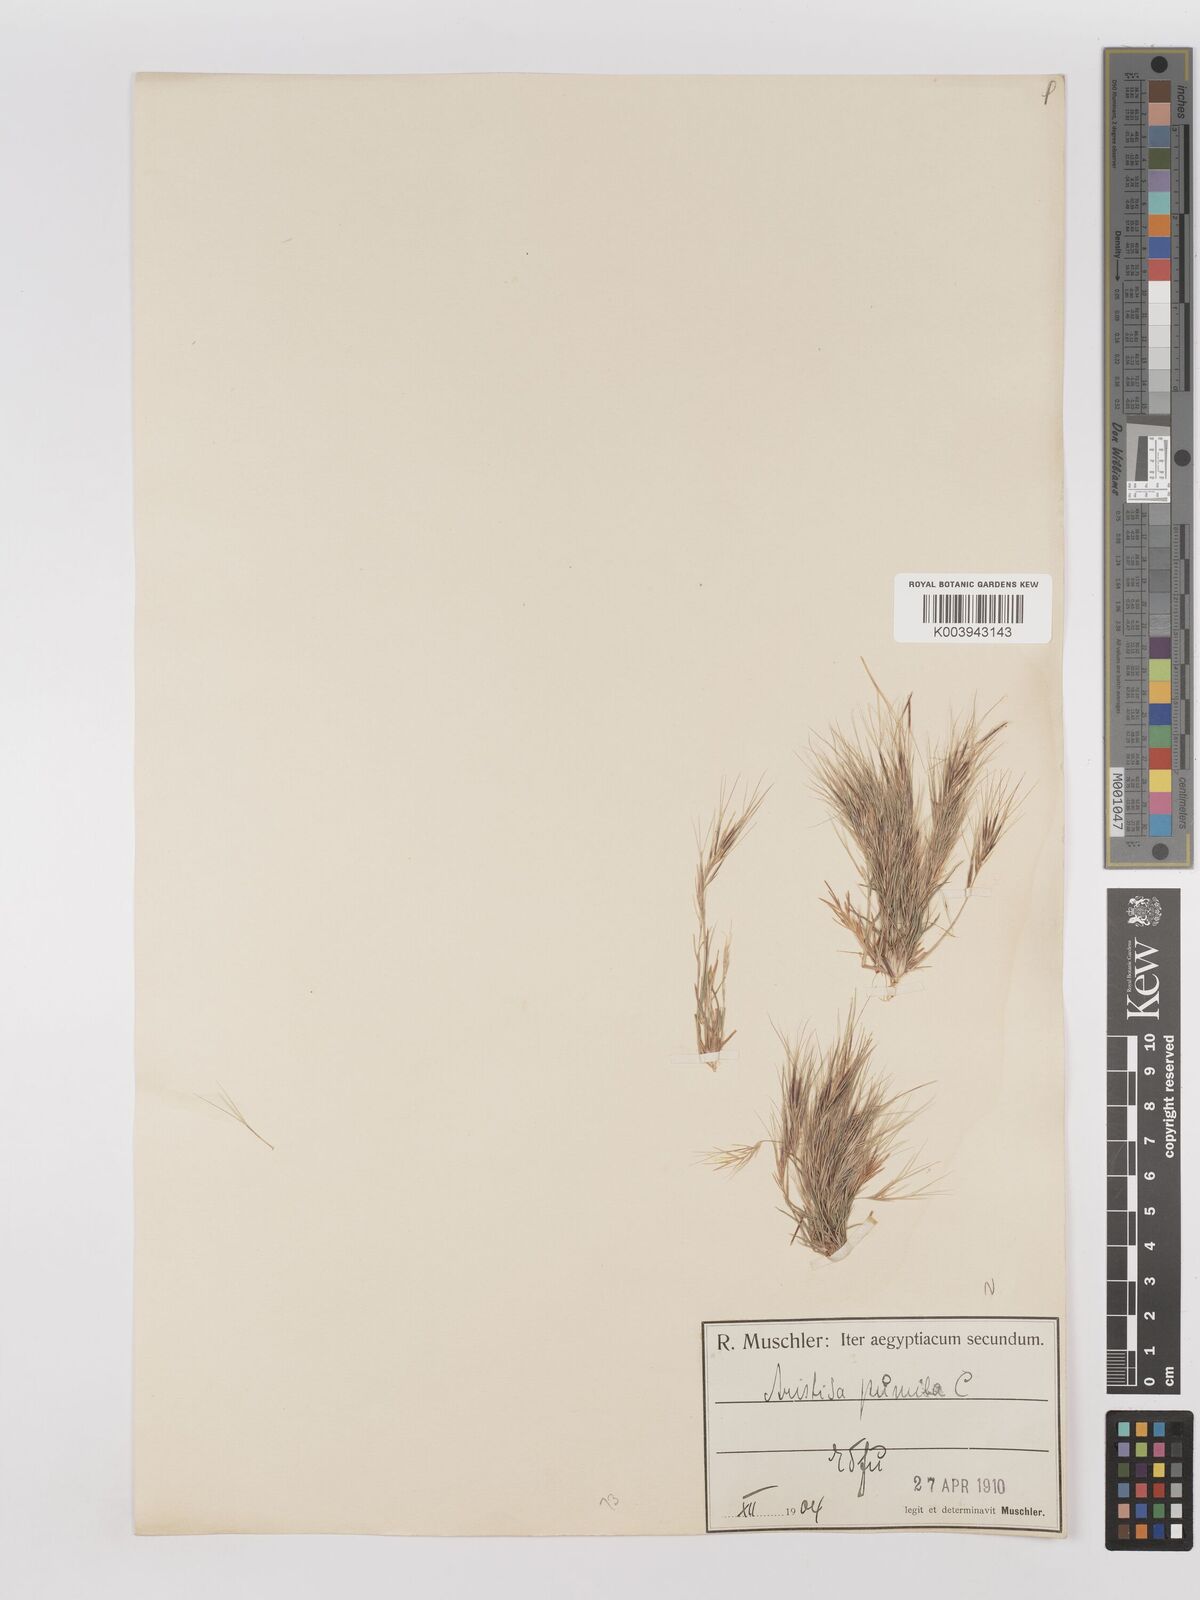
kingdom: Plantae
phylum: Tracheophyta
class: Liliopsida
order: Poales
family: Poaceae
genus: Aristida
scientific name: Aristida adscensionis
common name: Sixweeks threeawn
